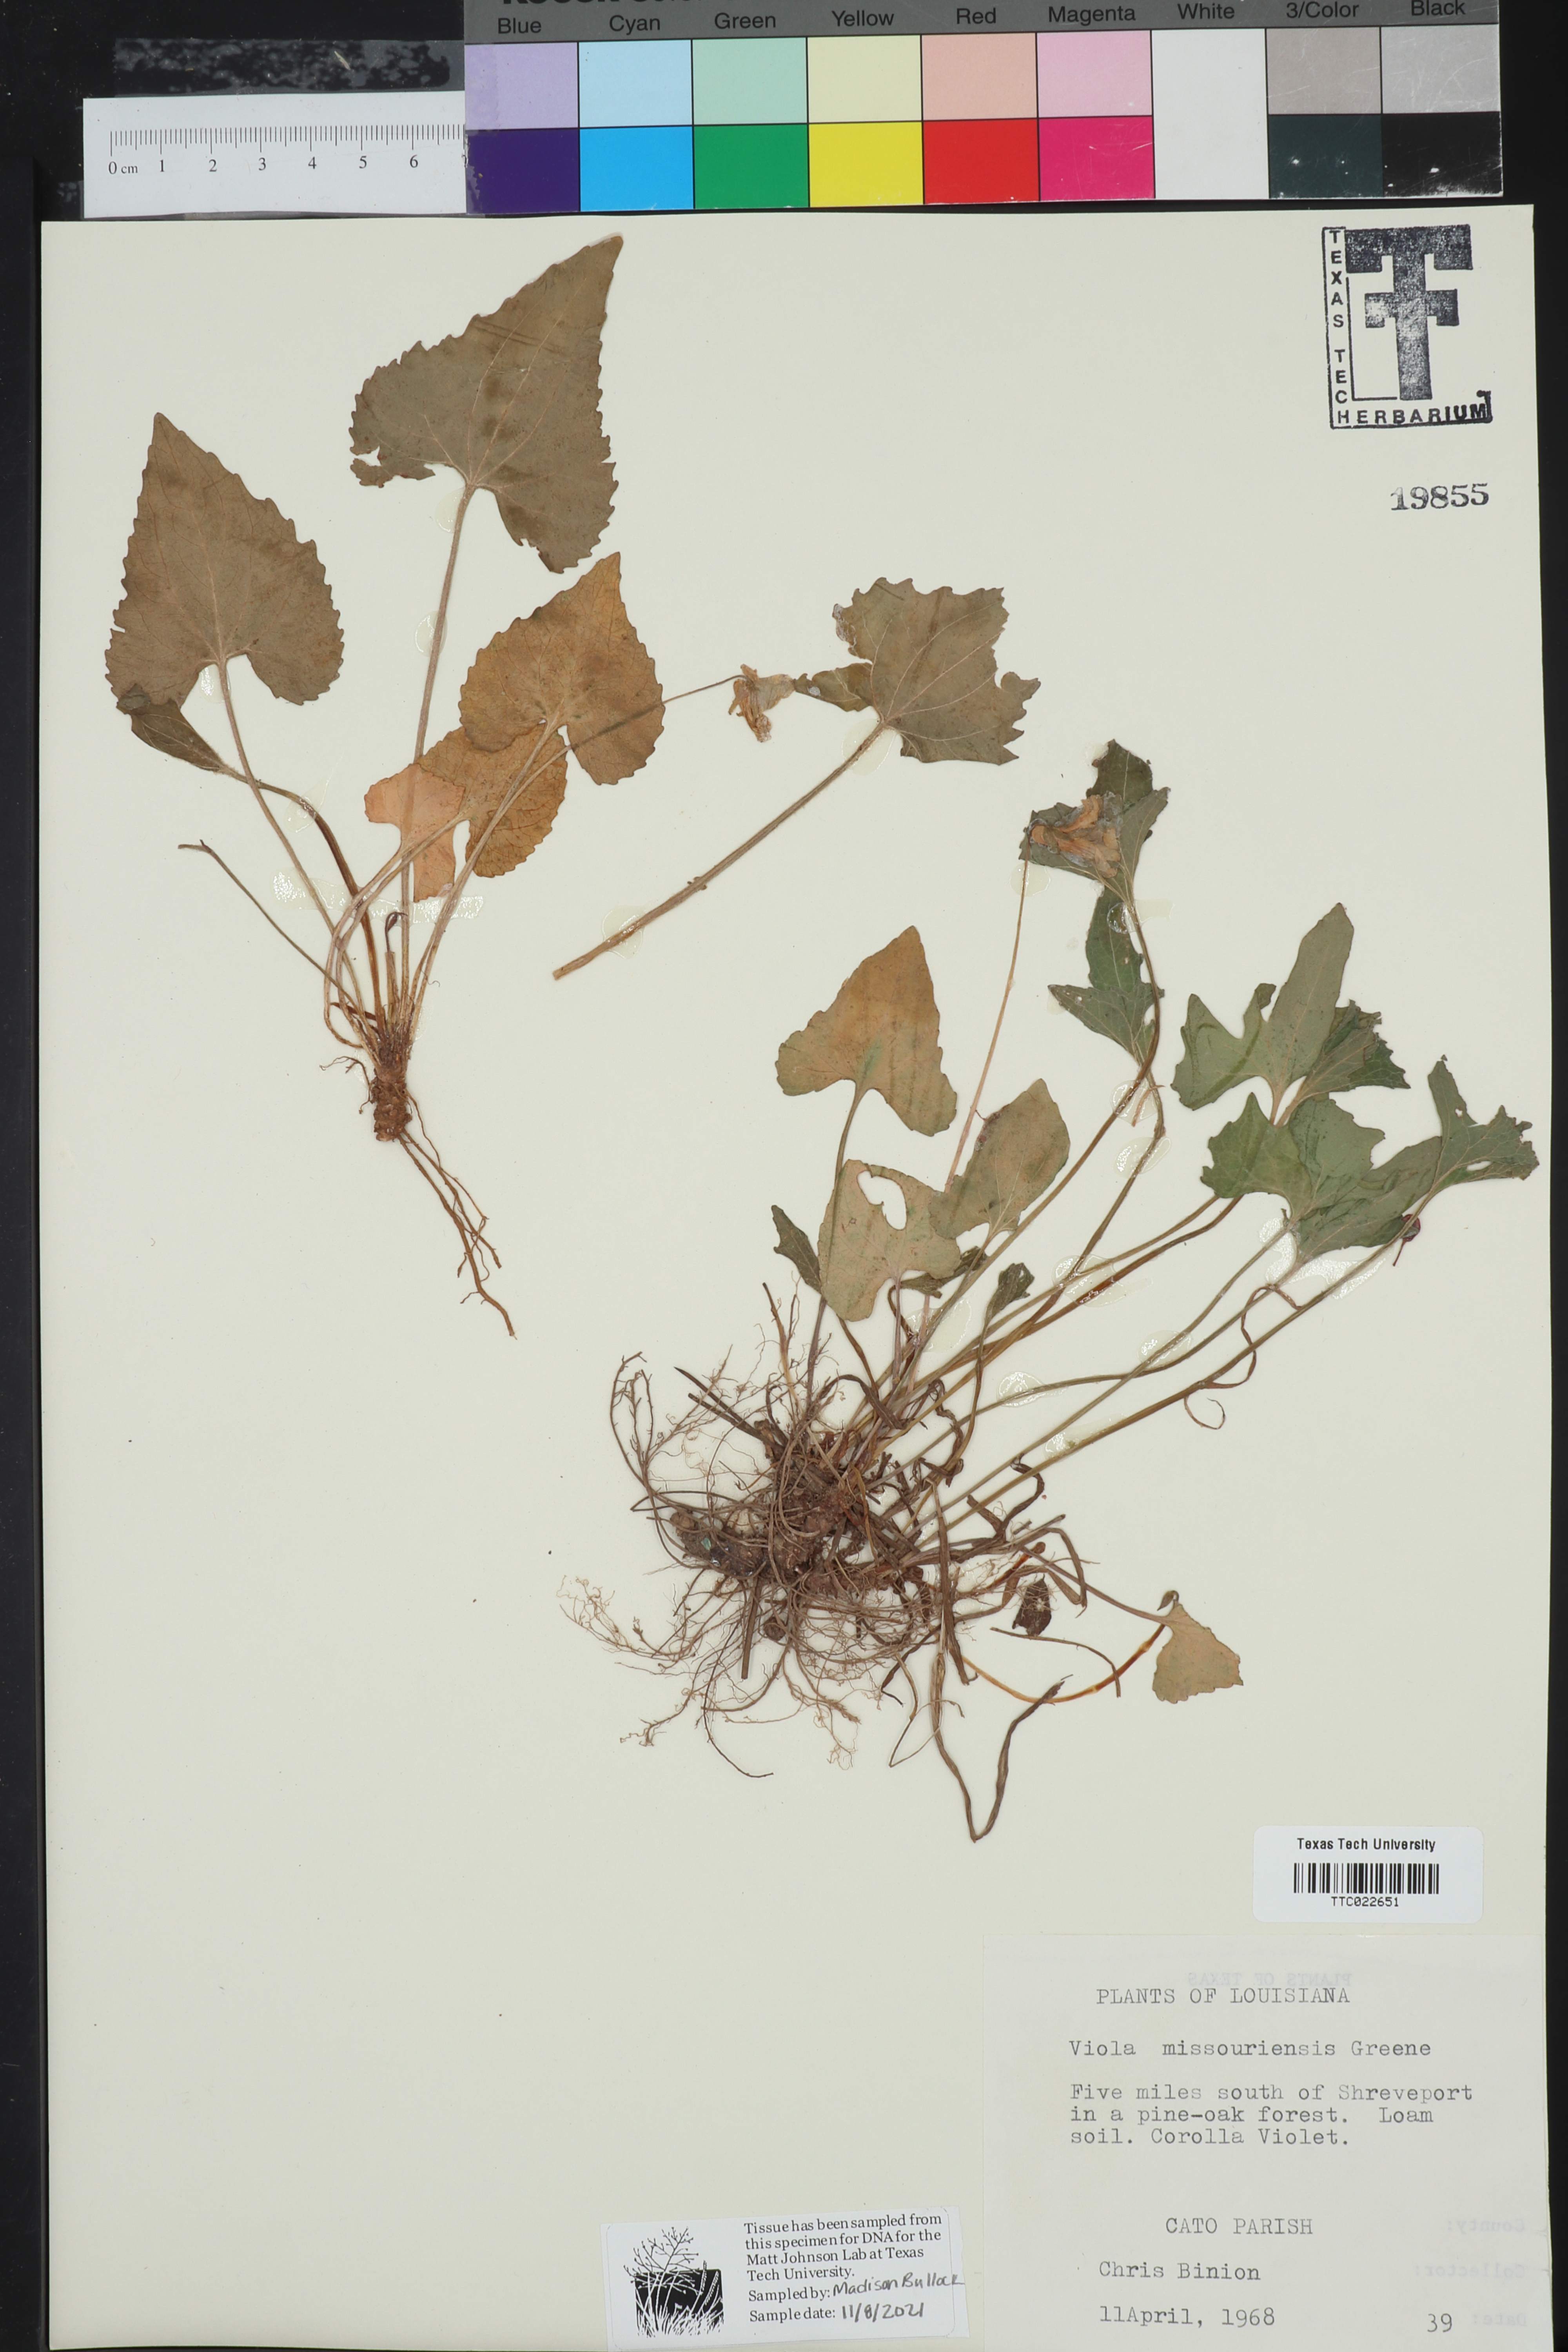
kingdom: Plantae
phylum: Tracheophyta
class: Magnoliopsida
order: Malpighiales
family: Violaceae
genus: Viola
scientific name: Viola missouriensis
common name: Missouri violet
